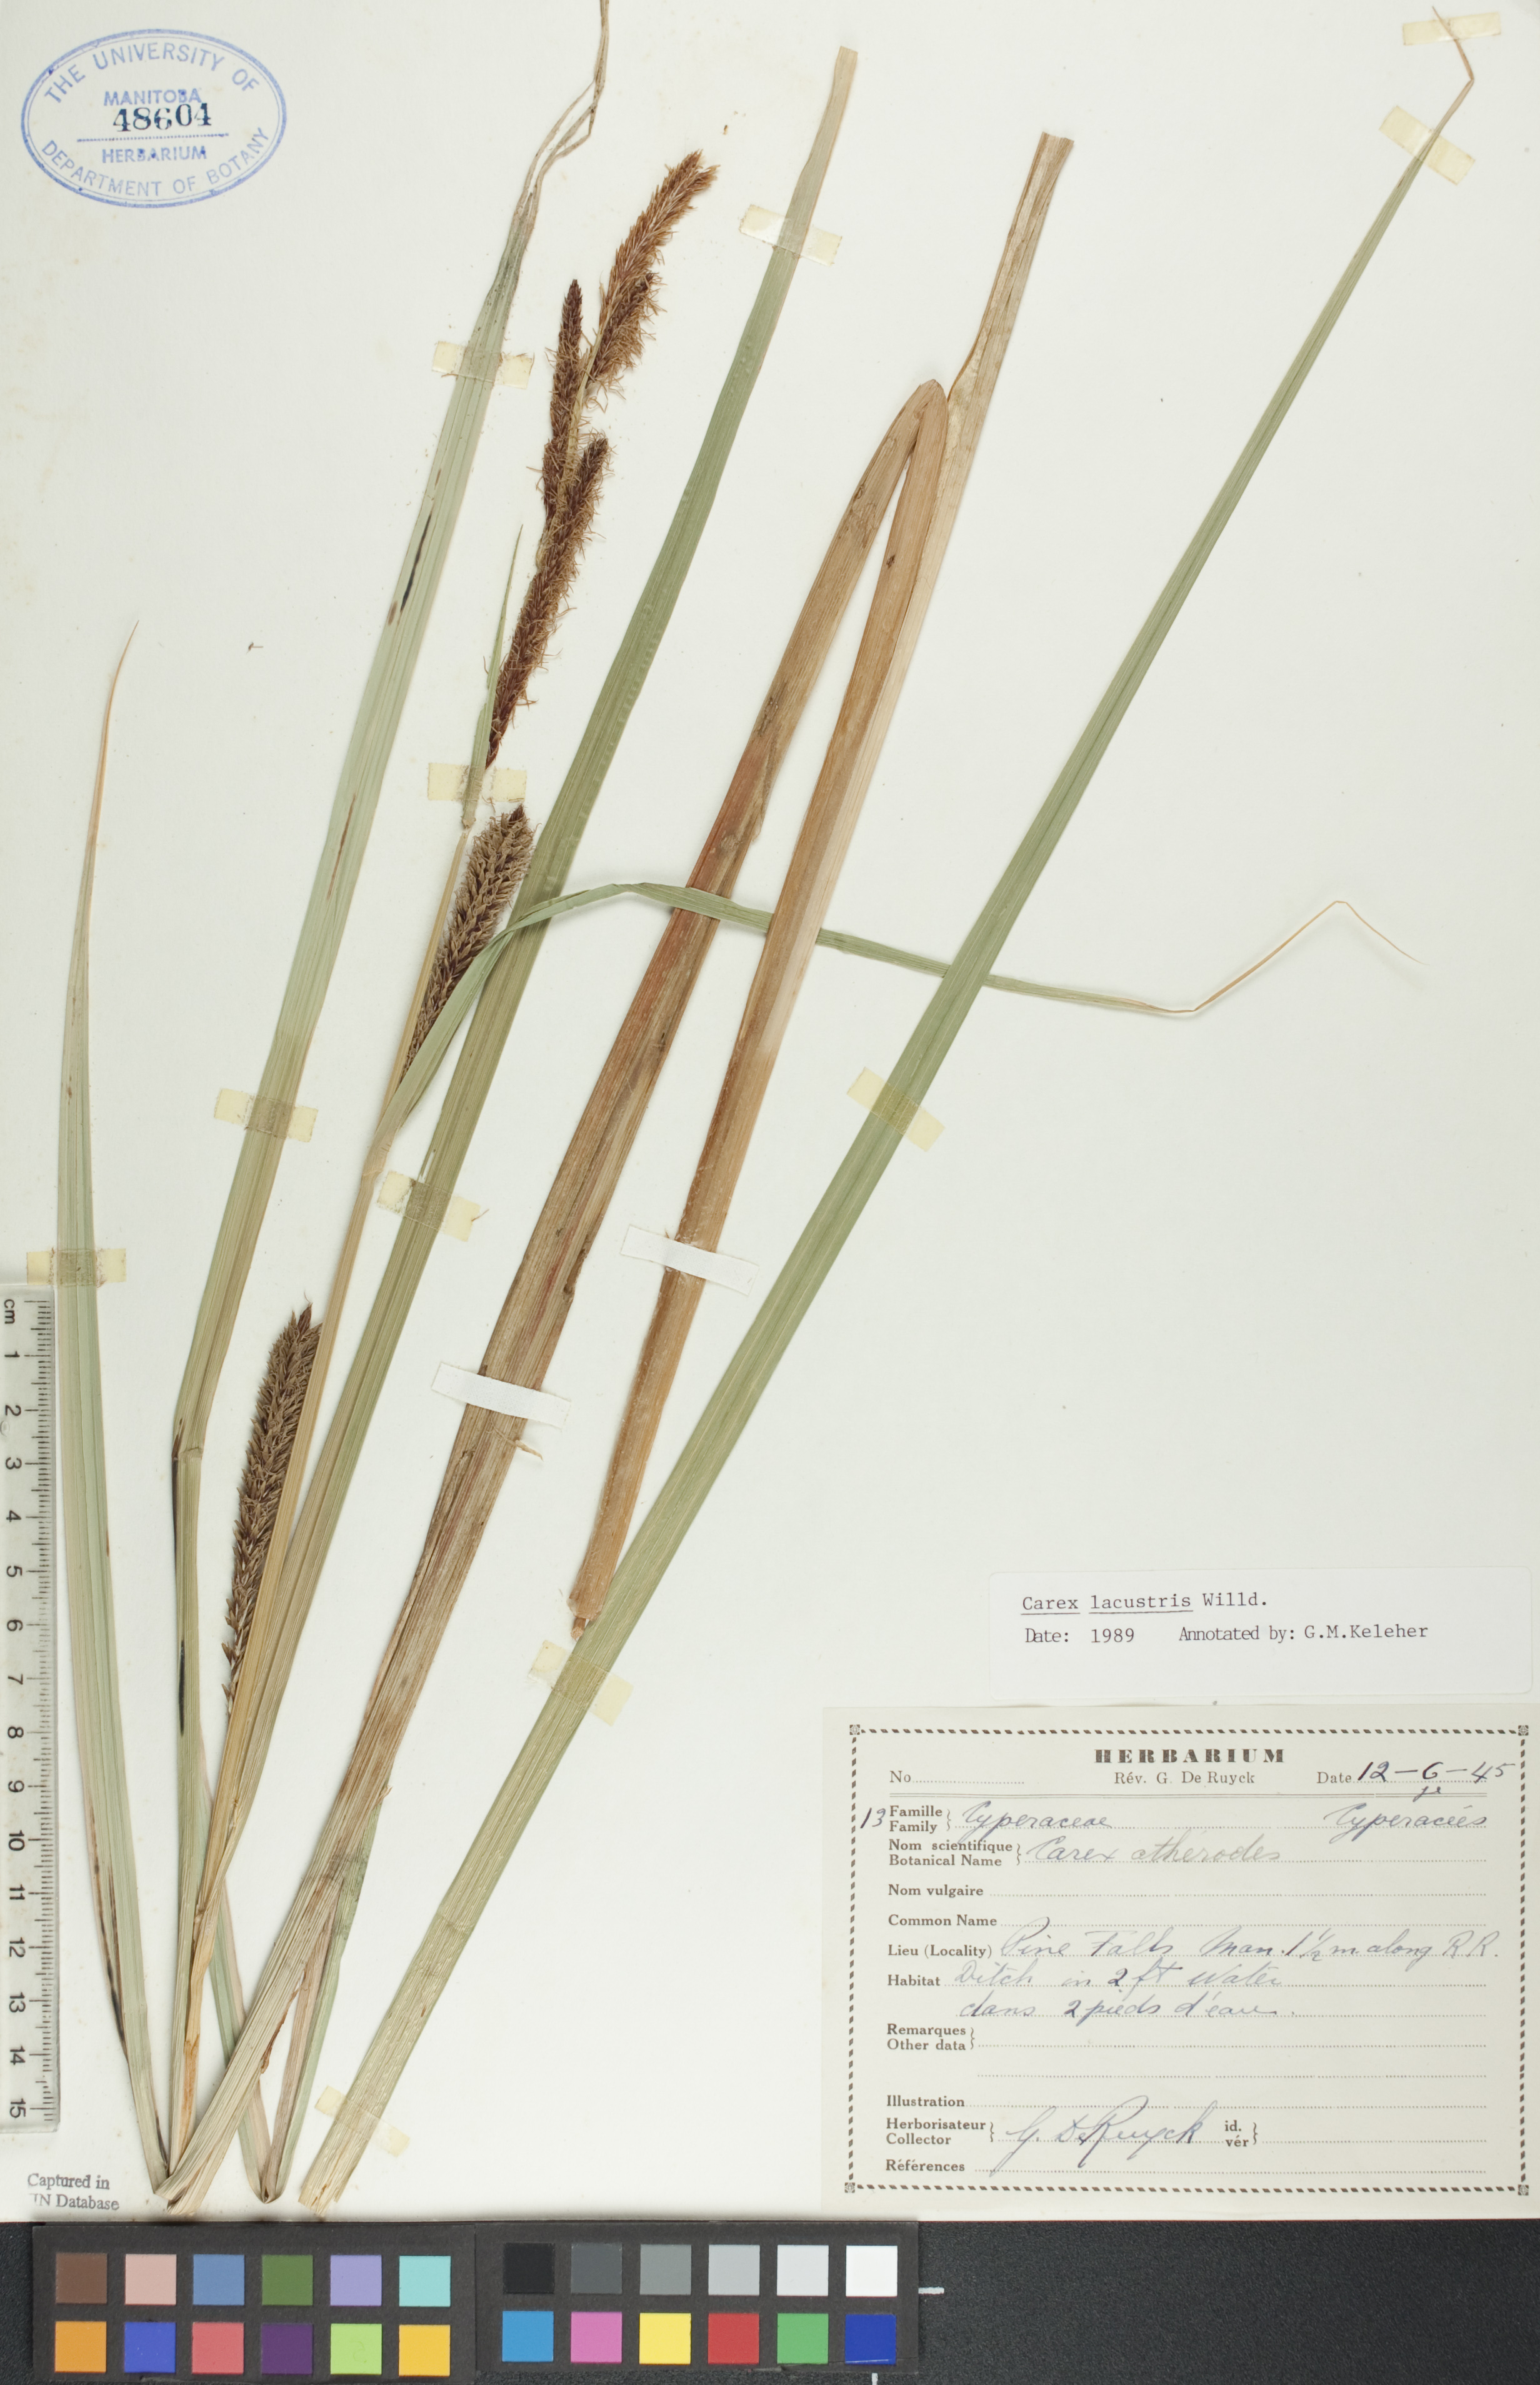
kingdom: Plantae
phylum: Tracheophyta
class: Liliopsida
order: Poales
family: Cyperaceae
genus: Carex
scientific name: Carex lacustris
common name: Common lake sedge
